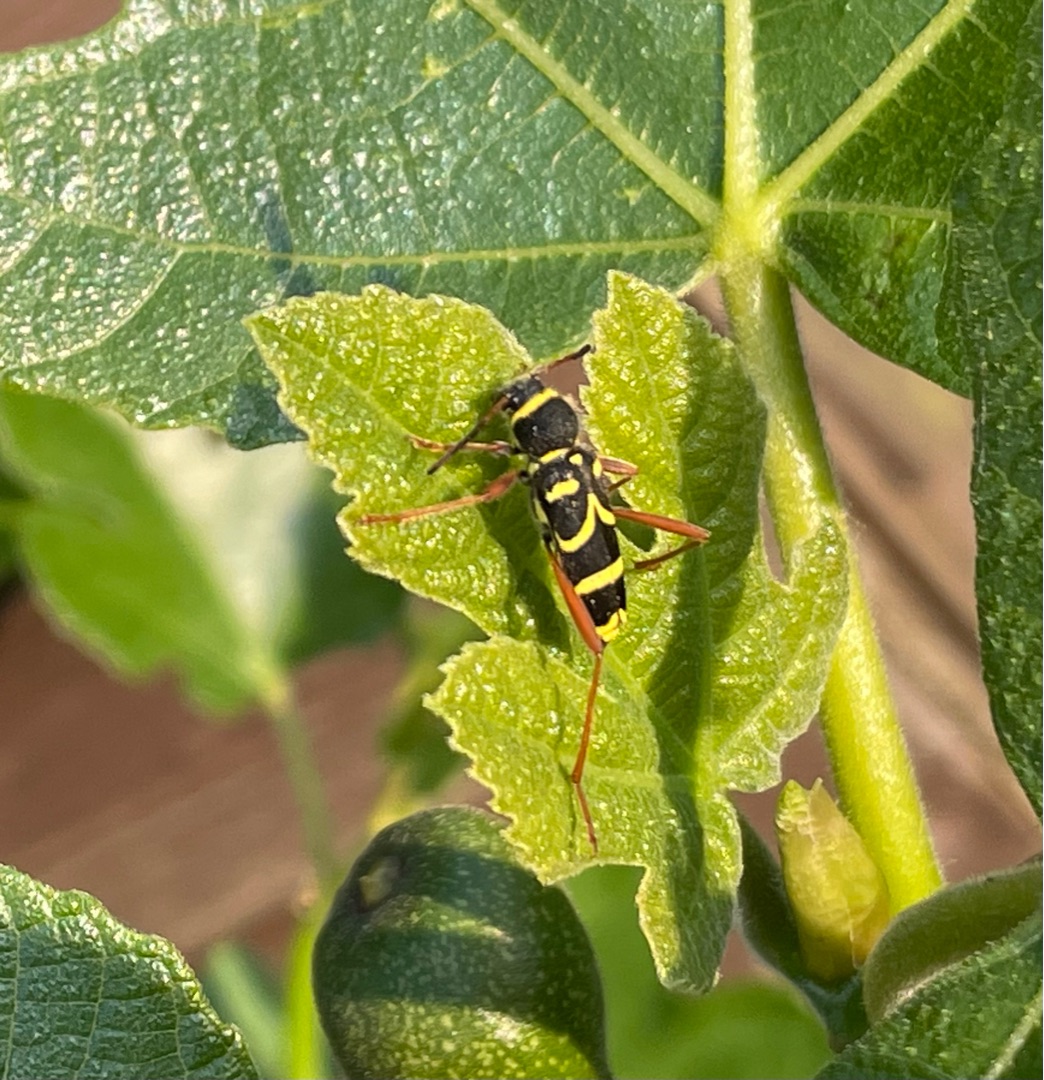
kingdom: Animalia
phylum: Arthropoda
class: Insecta
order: Coleoptera
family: Cerambycidae
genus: Clytus
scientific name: Clytus arietis
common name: Lille hvepsebuk
